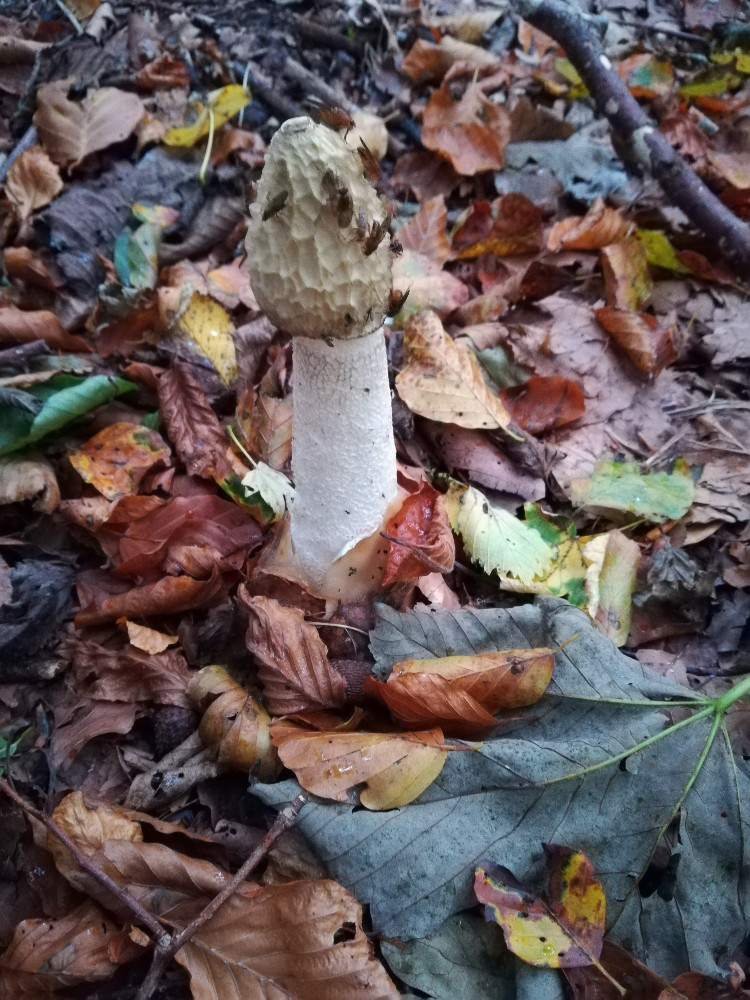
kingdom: Fungi
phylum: Basidiomycota
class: Agaricomycetes
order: Phallales
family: Phallaceae
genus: Phallus
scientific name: Phallus impudicus
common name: almindelig stinksvamp
